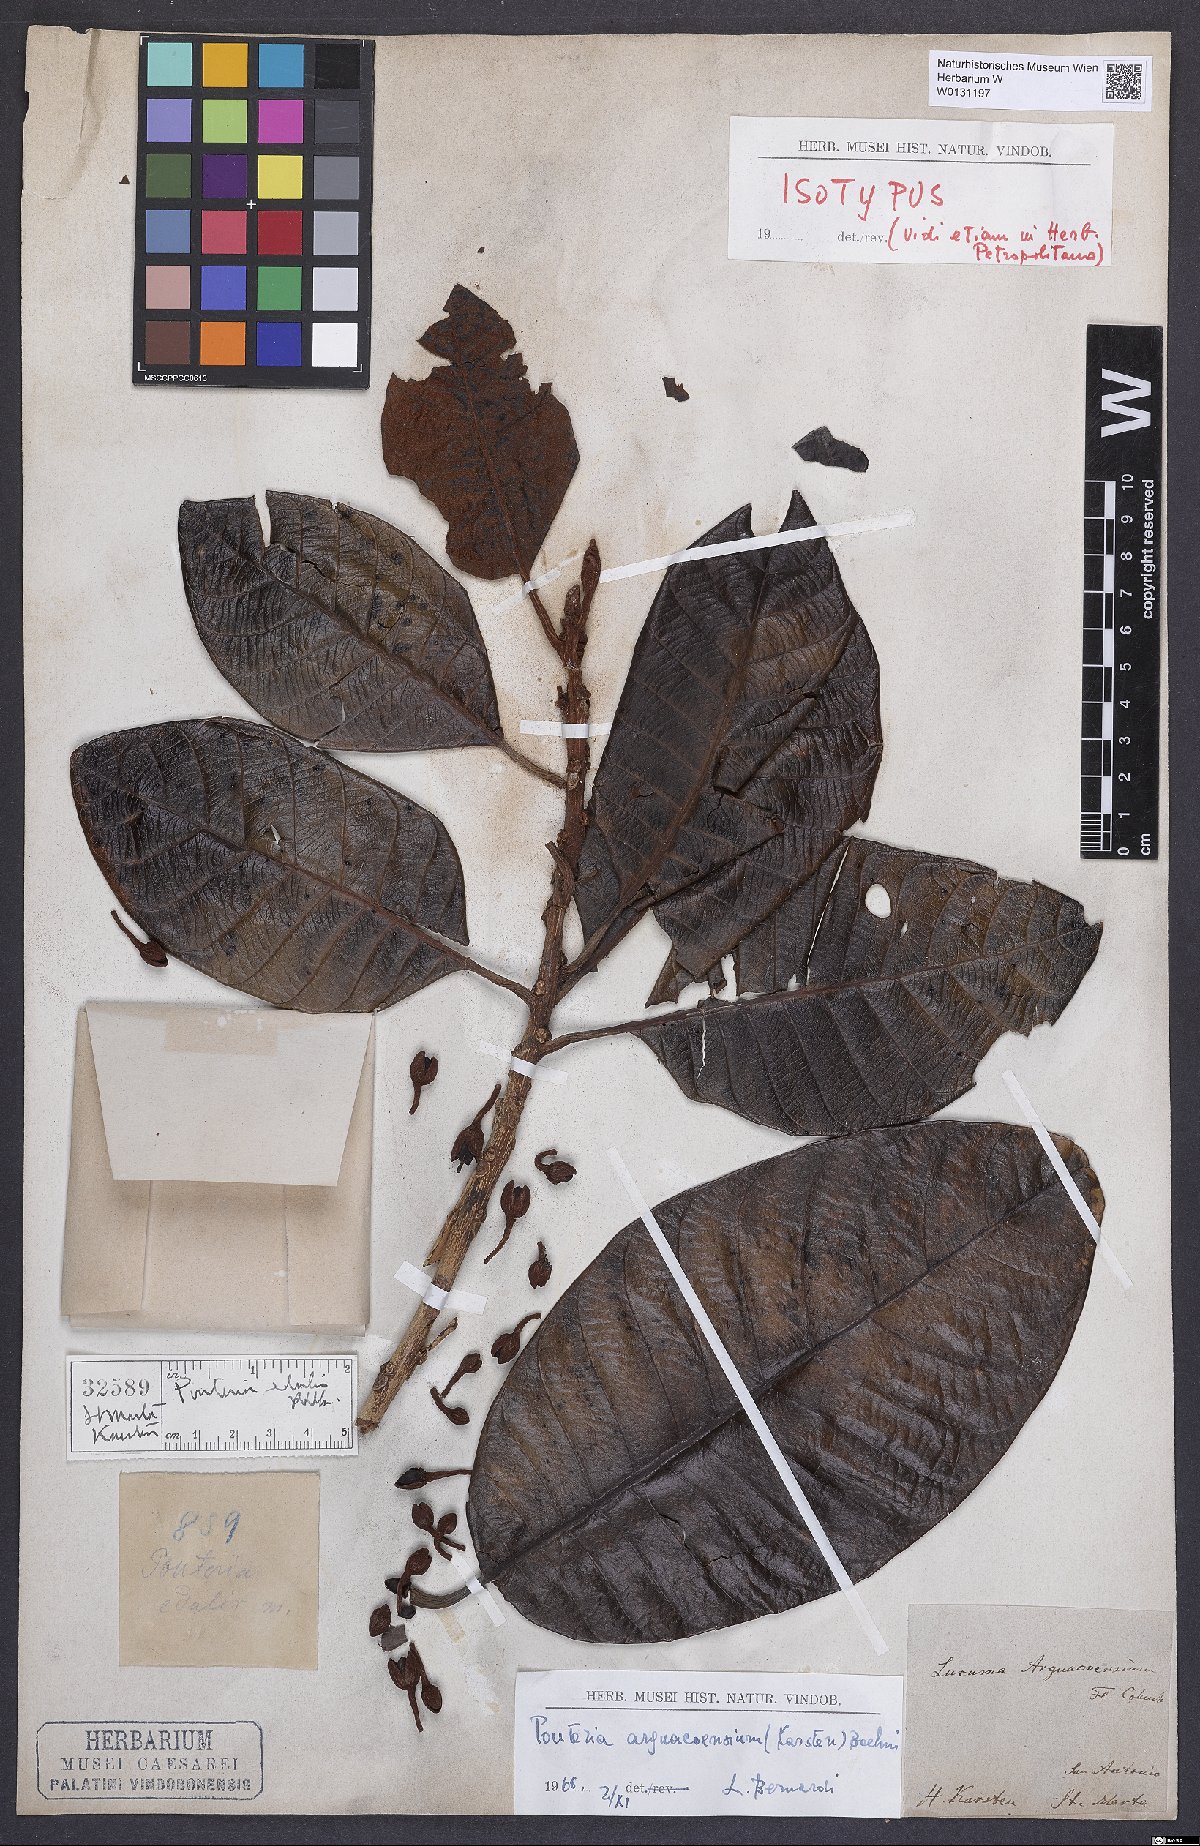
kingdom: Plantae
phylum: Tracheophyta
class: Magnoliopsida
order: Ericales
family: Sapotaceae
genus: Pouteria
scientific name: Pouteria arguacoensium
